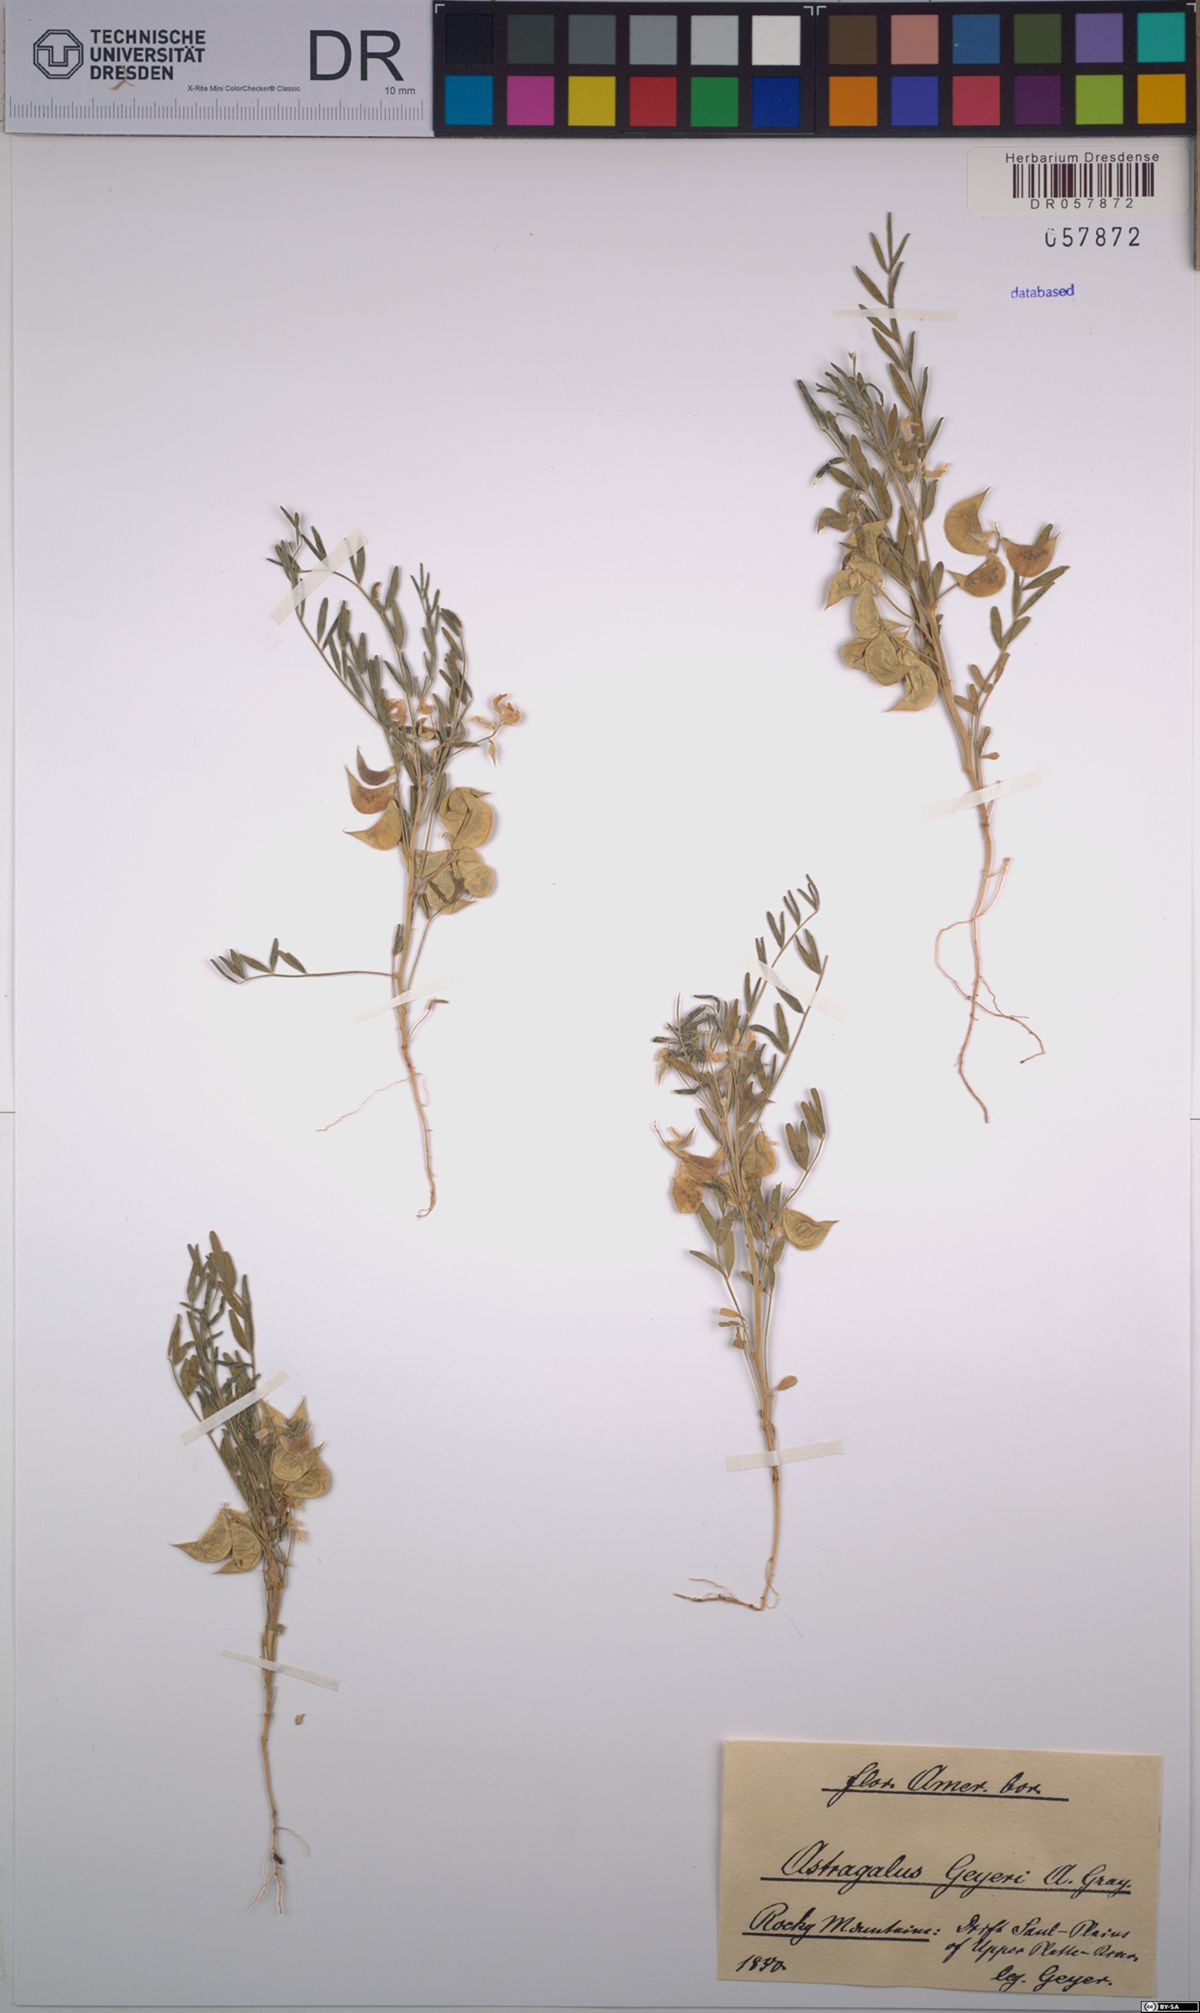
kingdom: Plantae
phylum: Tracheophyta
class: Magnoliopsida
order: Fabales
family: Fabaceae
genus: Astragalus
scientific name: Astragalus geyeri
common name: Geyer's milkvetch
